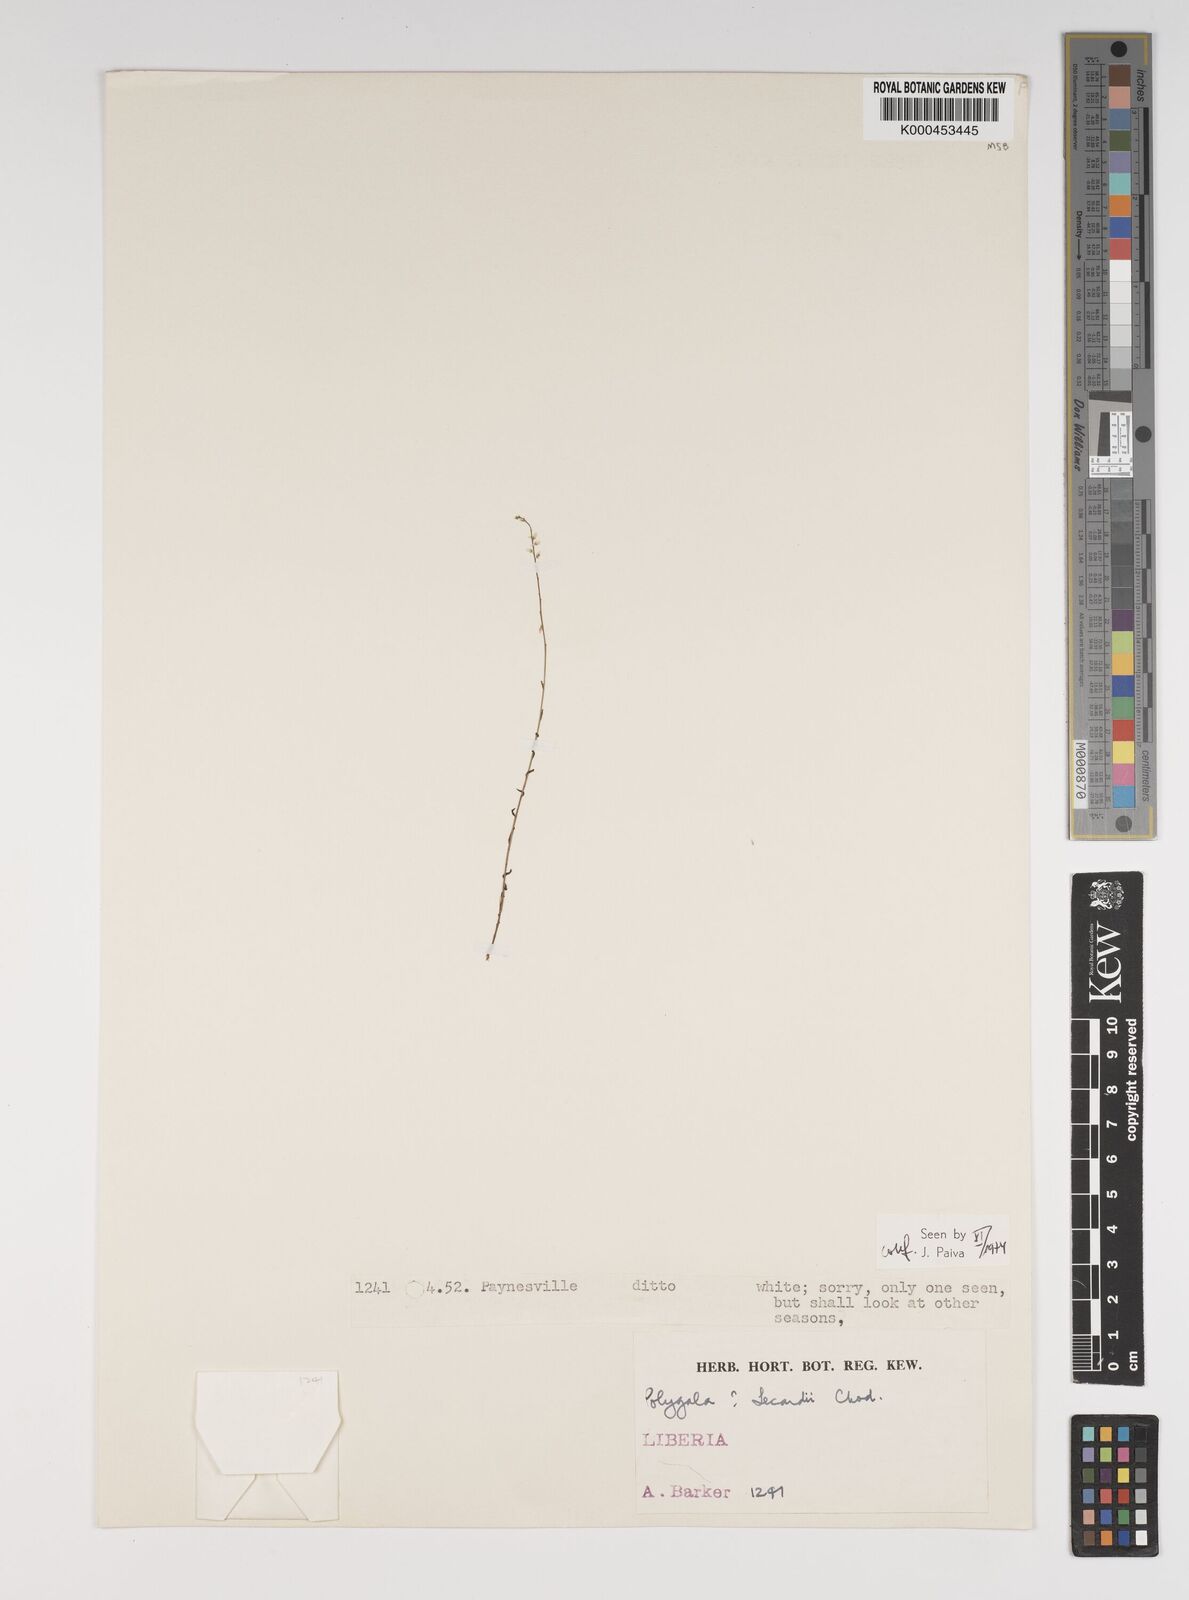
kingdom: Plantae
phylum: Tracheophyta
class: Magnoliopsida
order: Fabales
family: Polygalaceae
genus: Polygala
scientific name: Polygala lecardii
